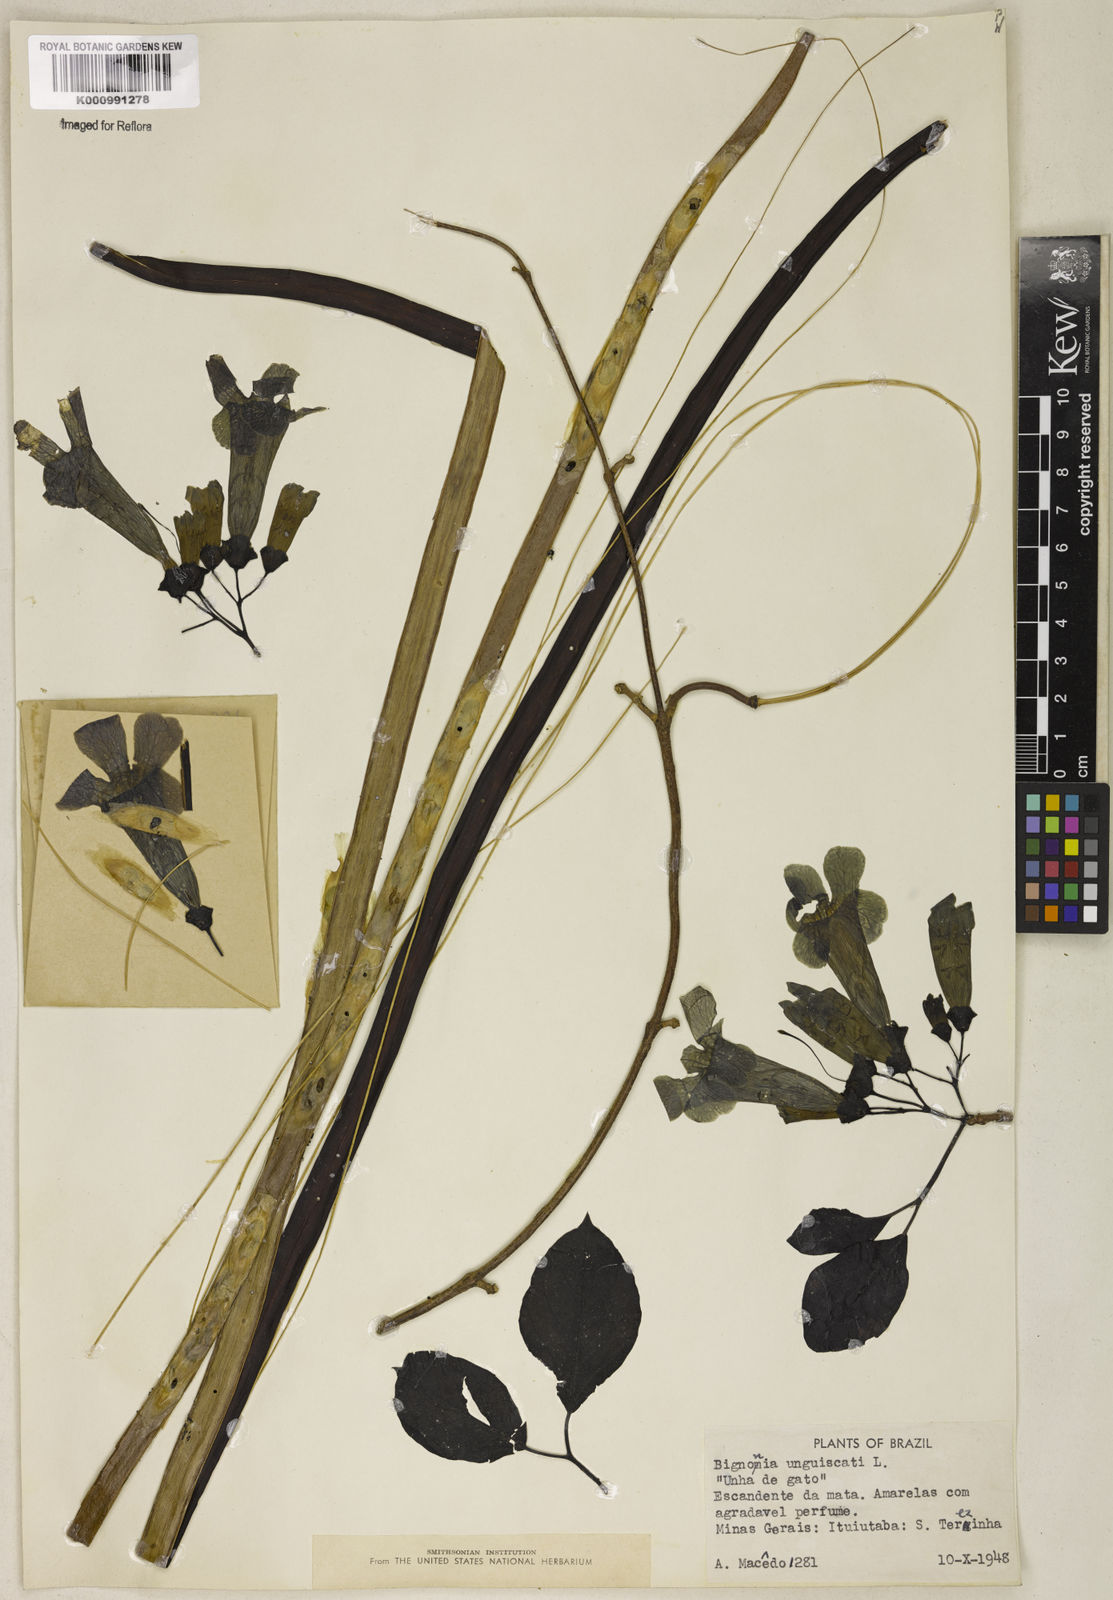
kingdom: Plantae
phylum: Tracheophyta
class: Magnoliopsida
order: Lamiales
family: Bignoniaceae
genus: Dolichandra
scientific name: Dolichandra unguis-cati
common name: Catclaw vine
